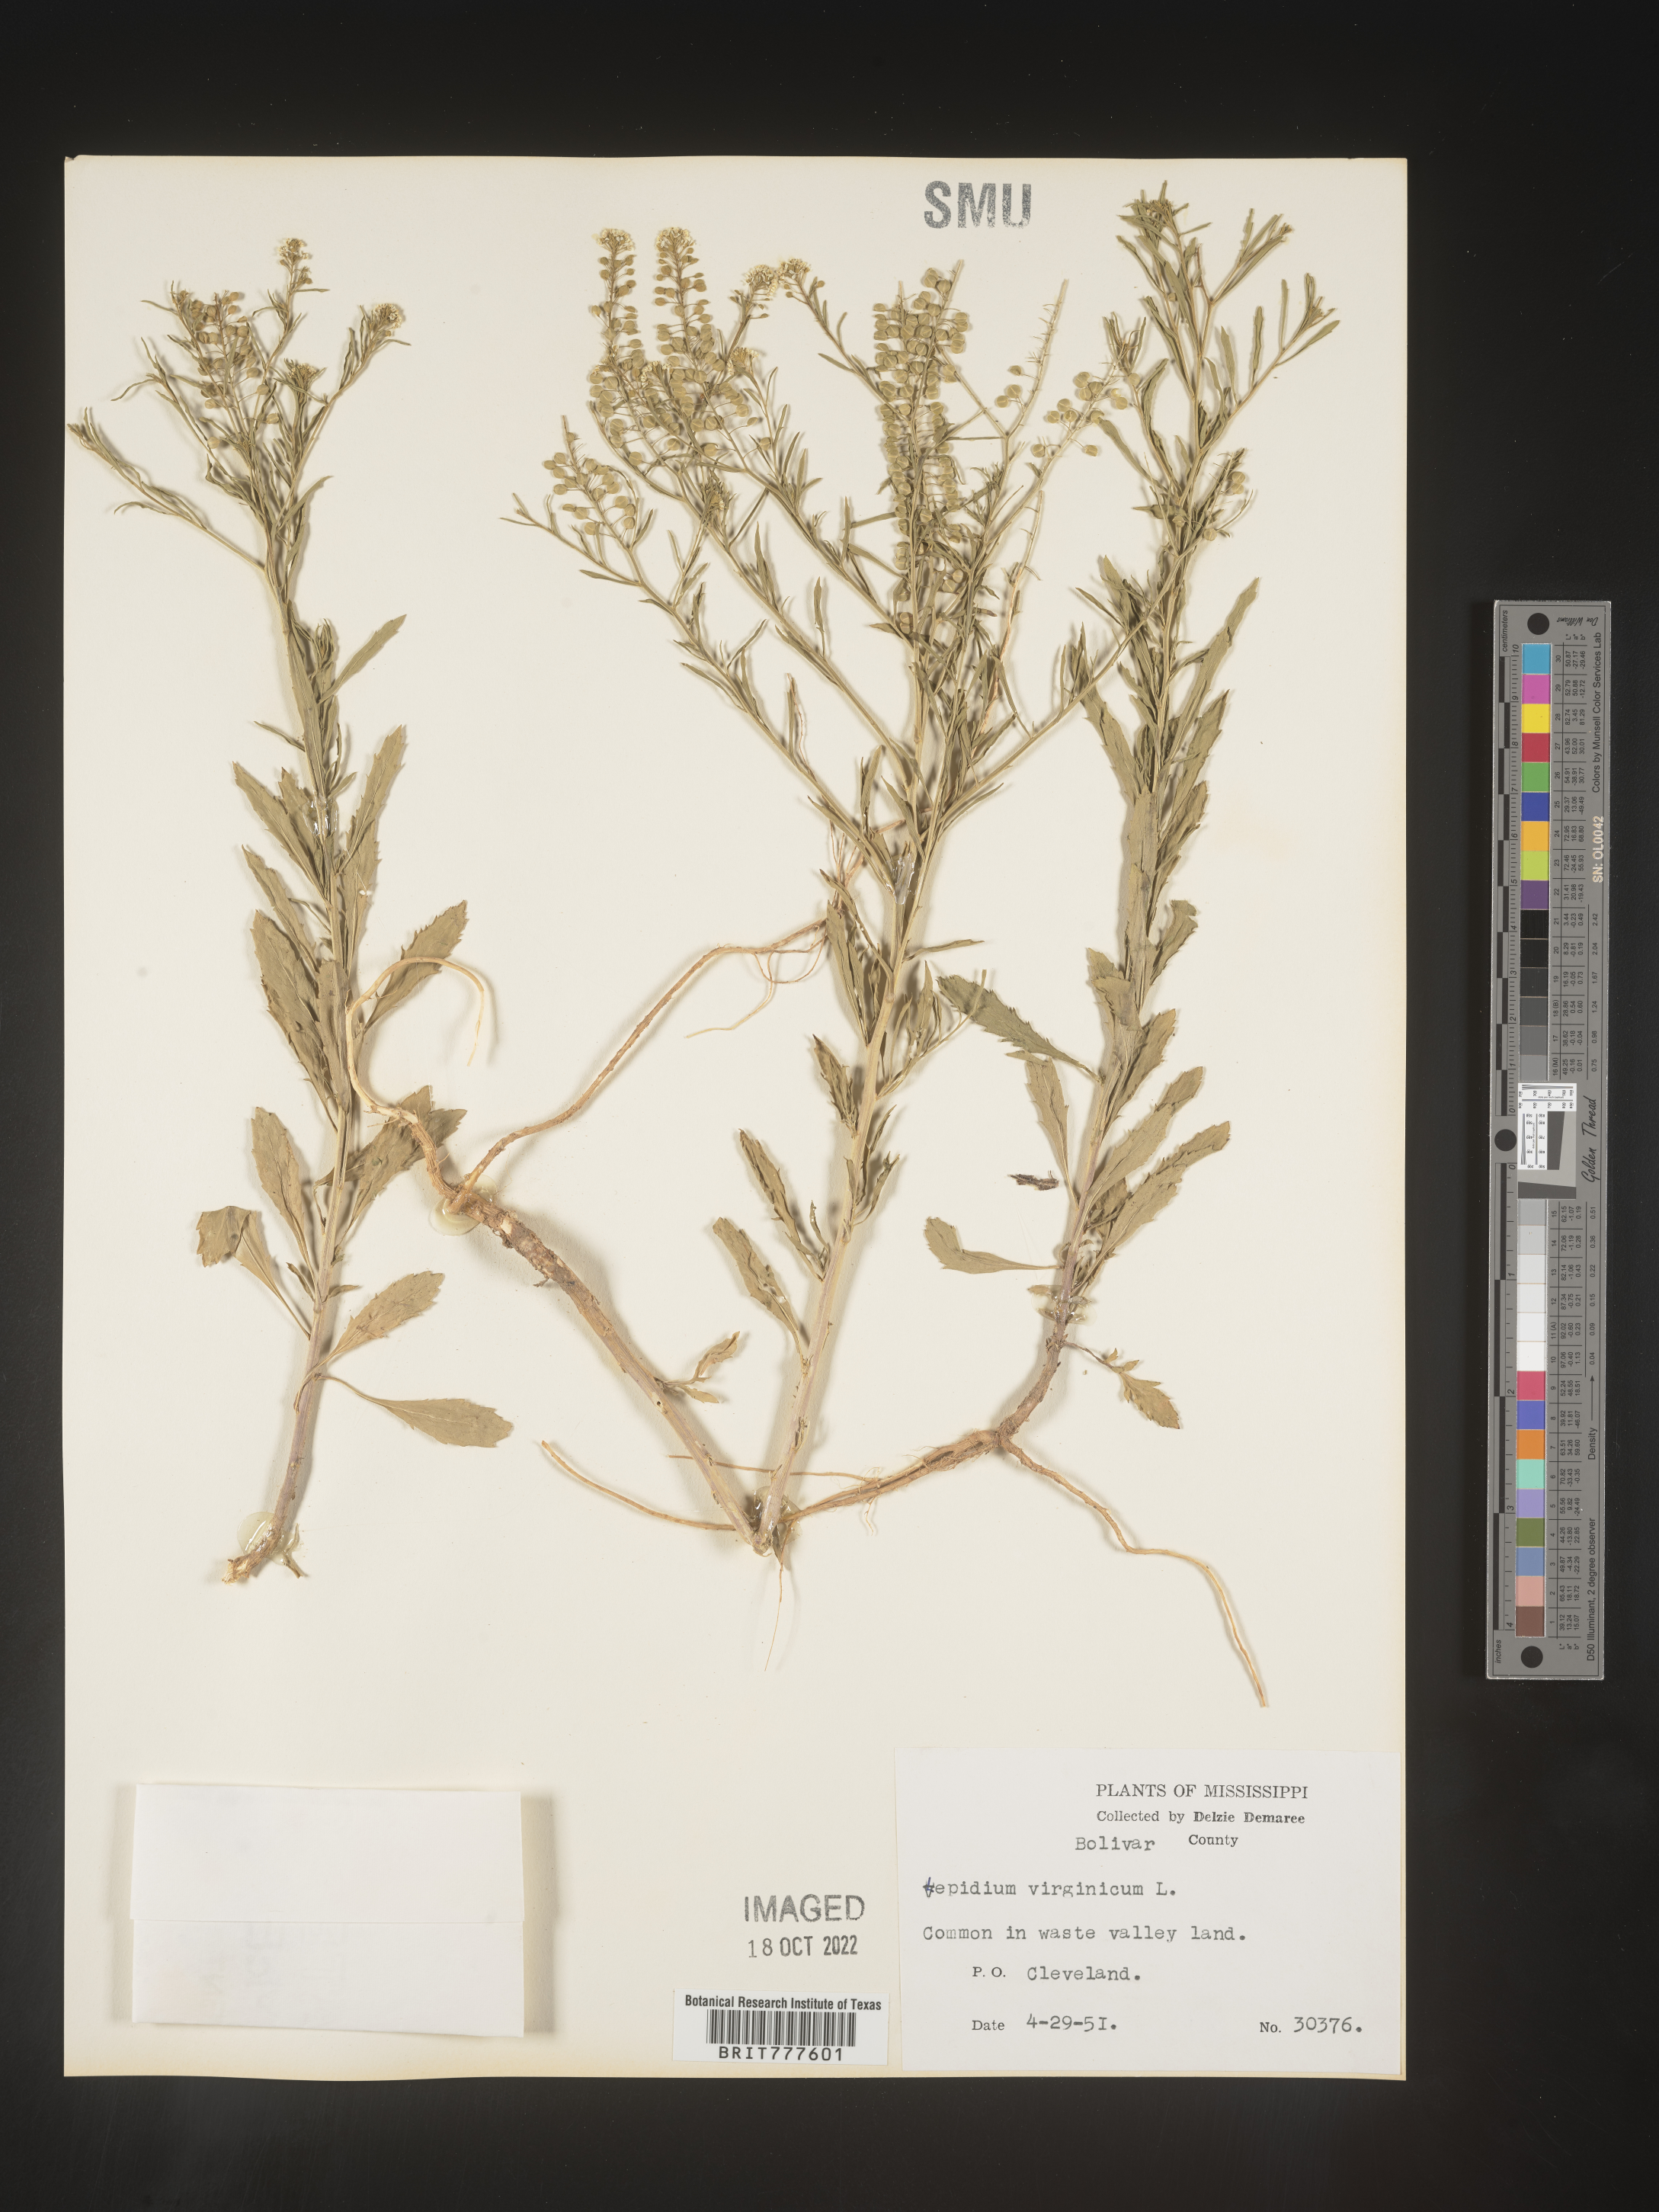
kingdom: Plantae
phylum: Tracheophyta
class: Magnoliopsida
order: Brassicales
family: Brassicaceae
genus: Lepidium
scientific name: Lepidium virginicum
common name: Least pepperwort
